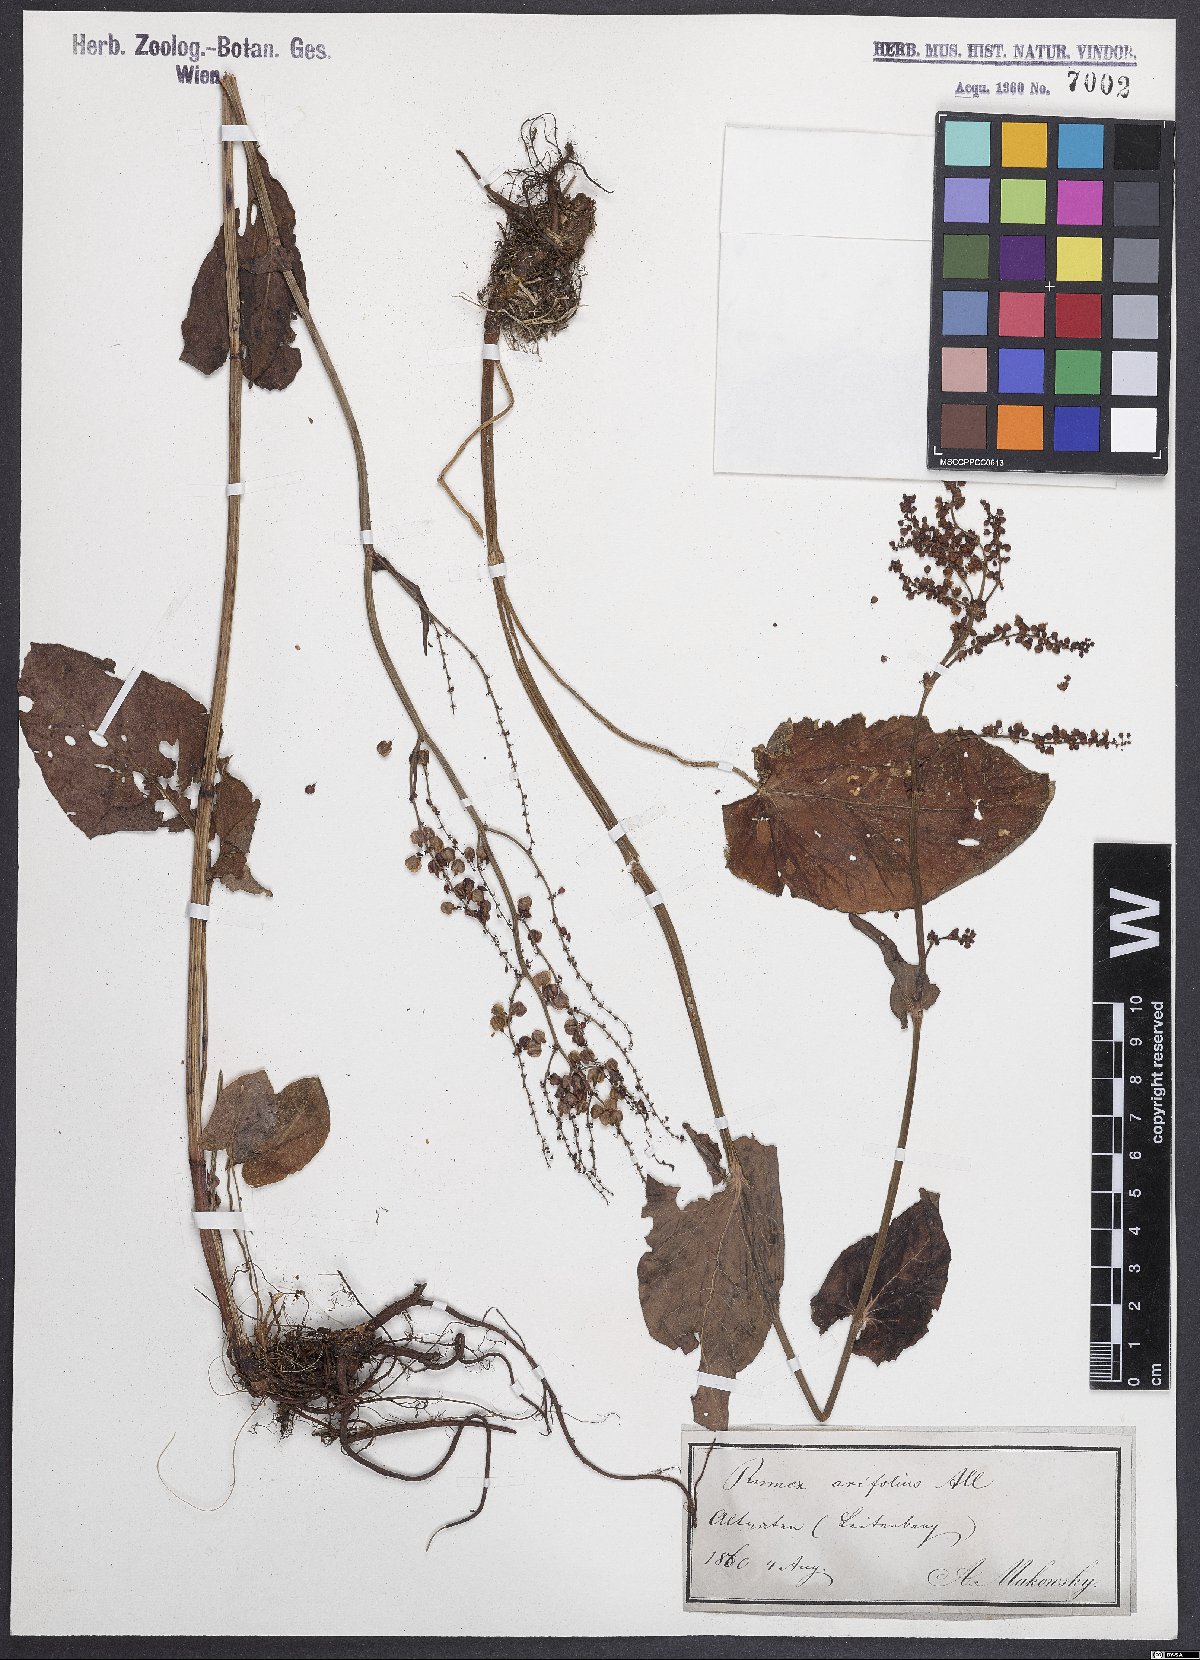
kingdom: Plantae
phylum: Tracheophyta
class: Magnoliopsida
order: Caryophyllales
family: Polygonaceae
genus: Rumex
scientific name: Rumex arifolius
